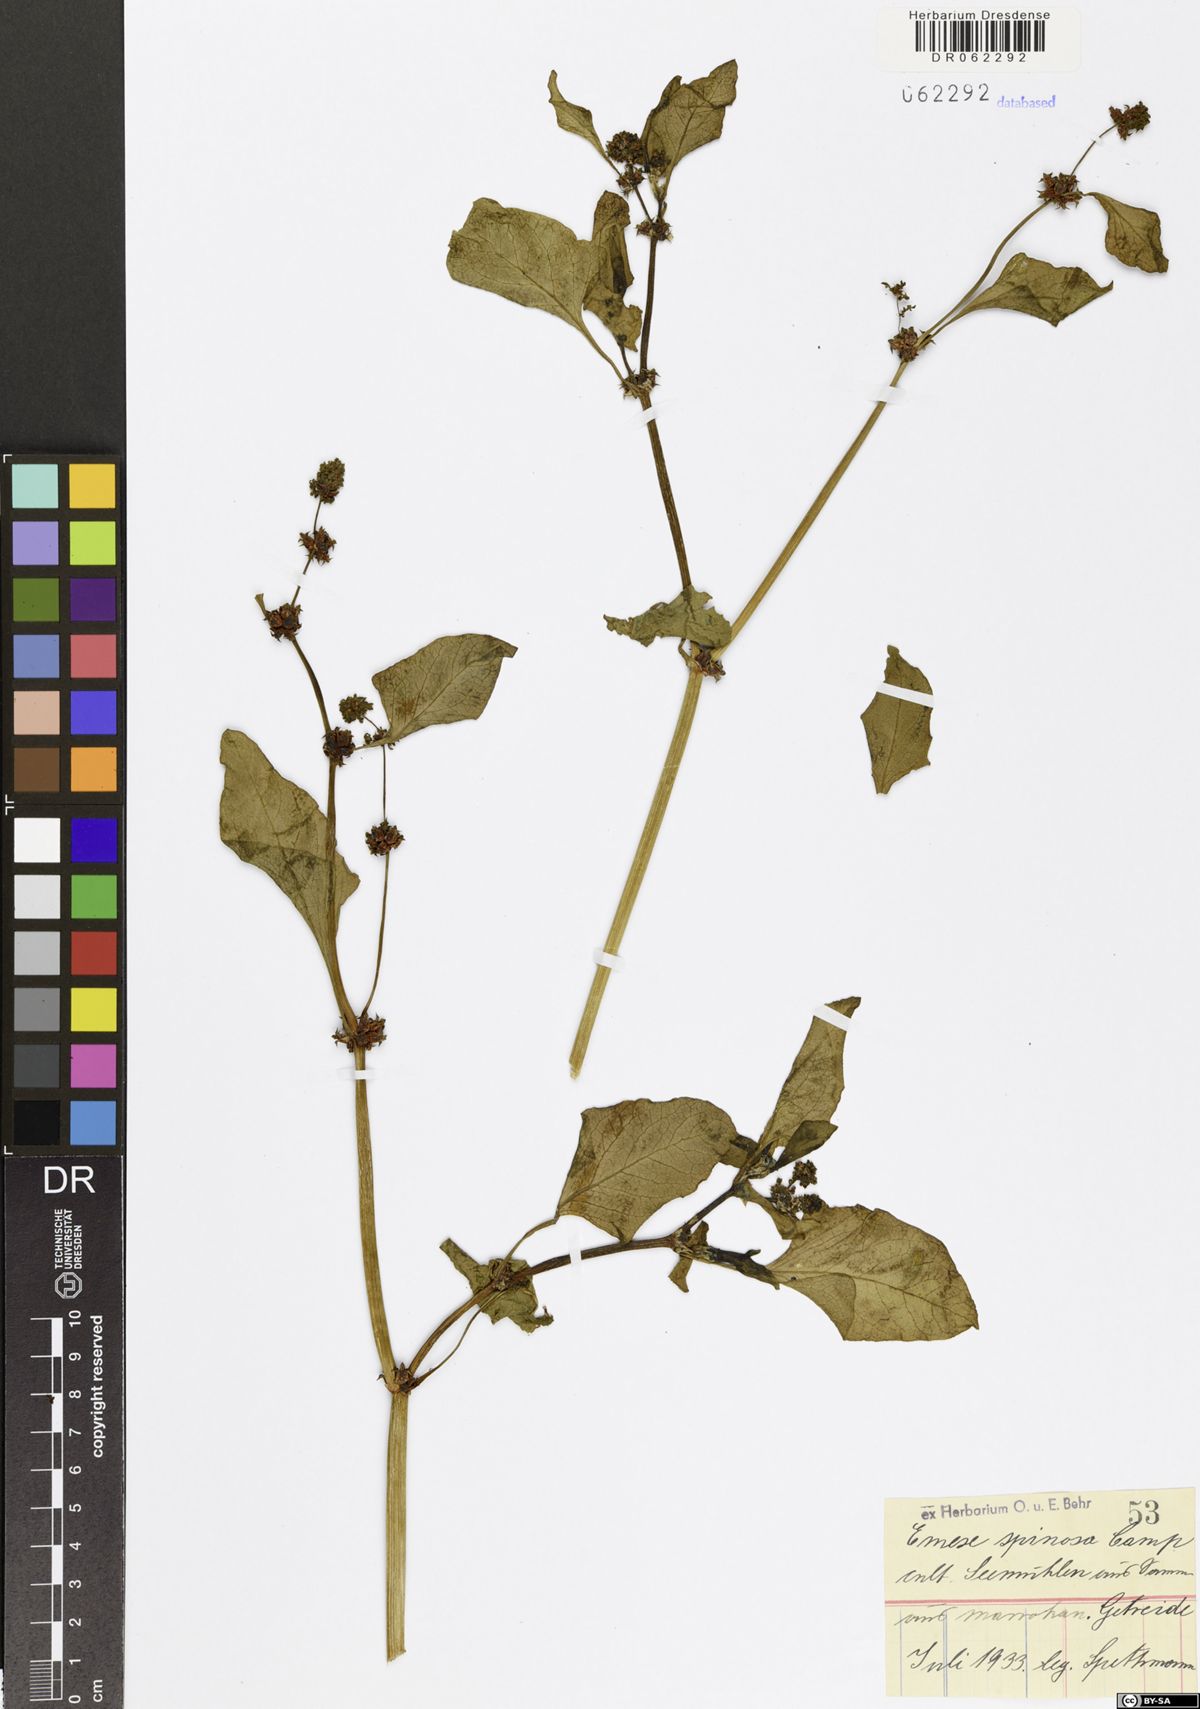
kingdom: Plantae
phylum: Tracheophyta
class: Magnoliopsida
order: Caryophyllales
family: Polygonaceae
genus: Rumex
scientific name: Rumex spinosus
